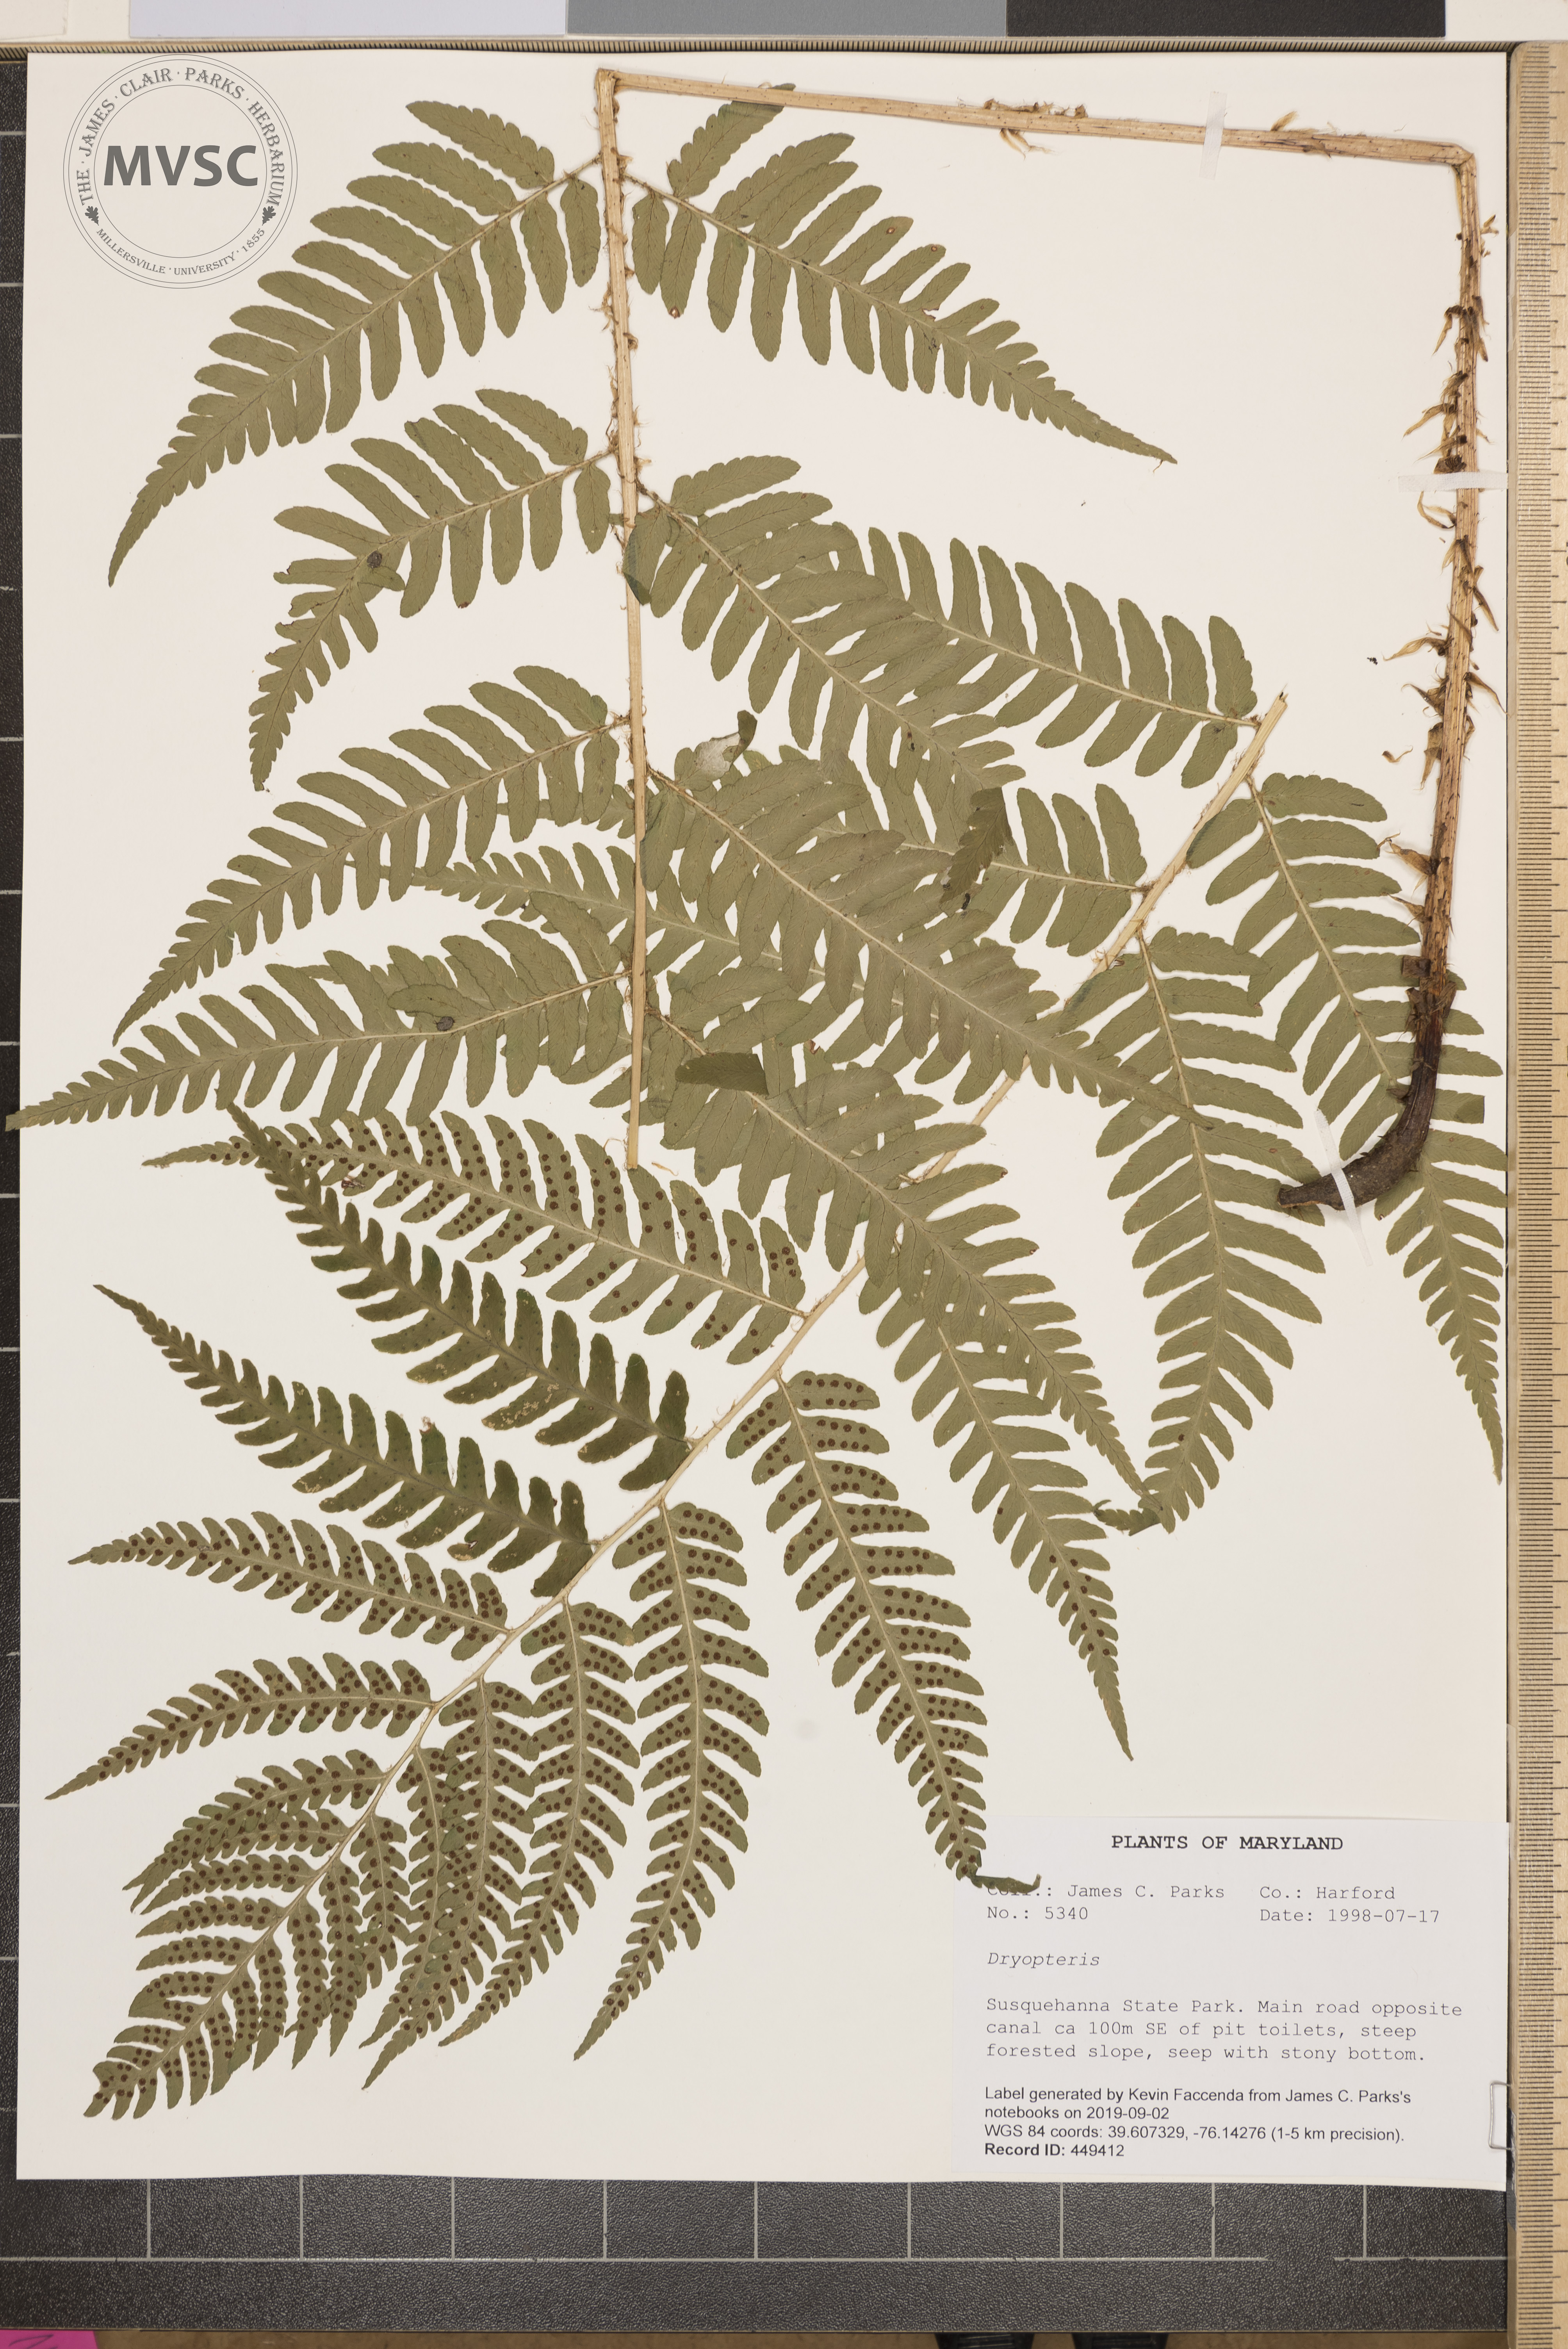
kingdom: Plantae
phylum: Tracheophyta
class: Polypodiopsida
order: Polypodiales
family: Dryopteridaceae
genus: Dryopteris
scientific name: Dryopteris leedsii
